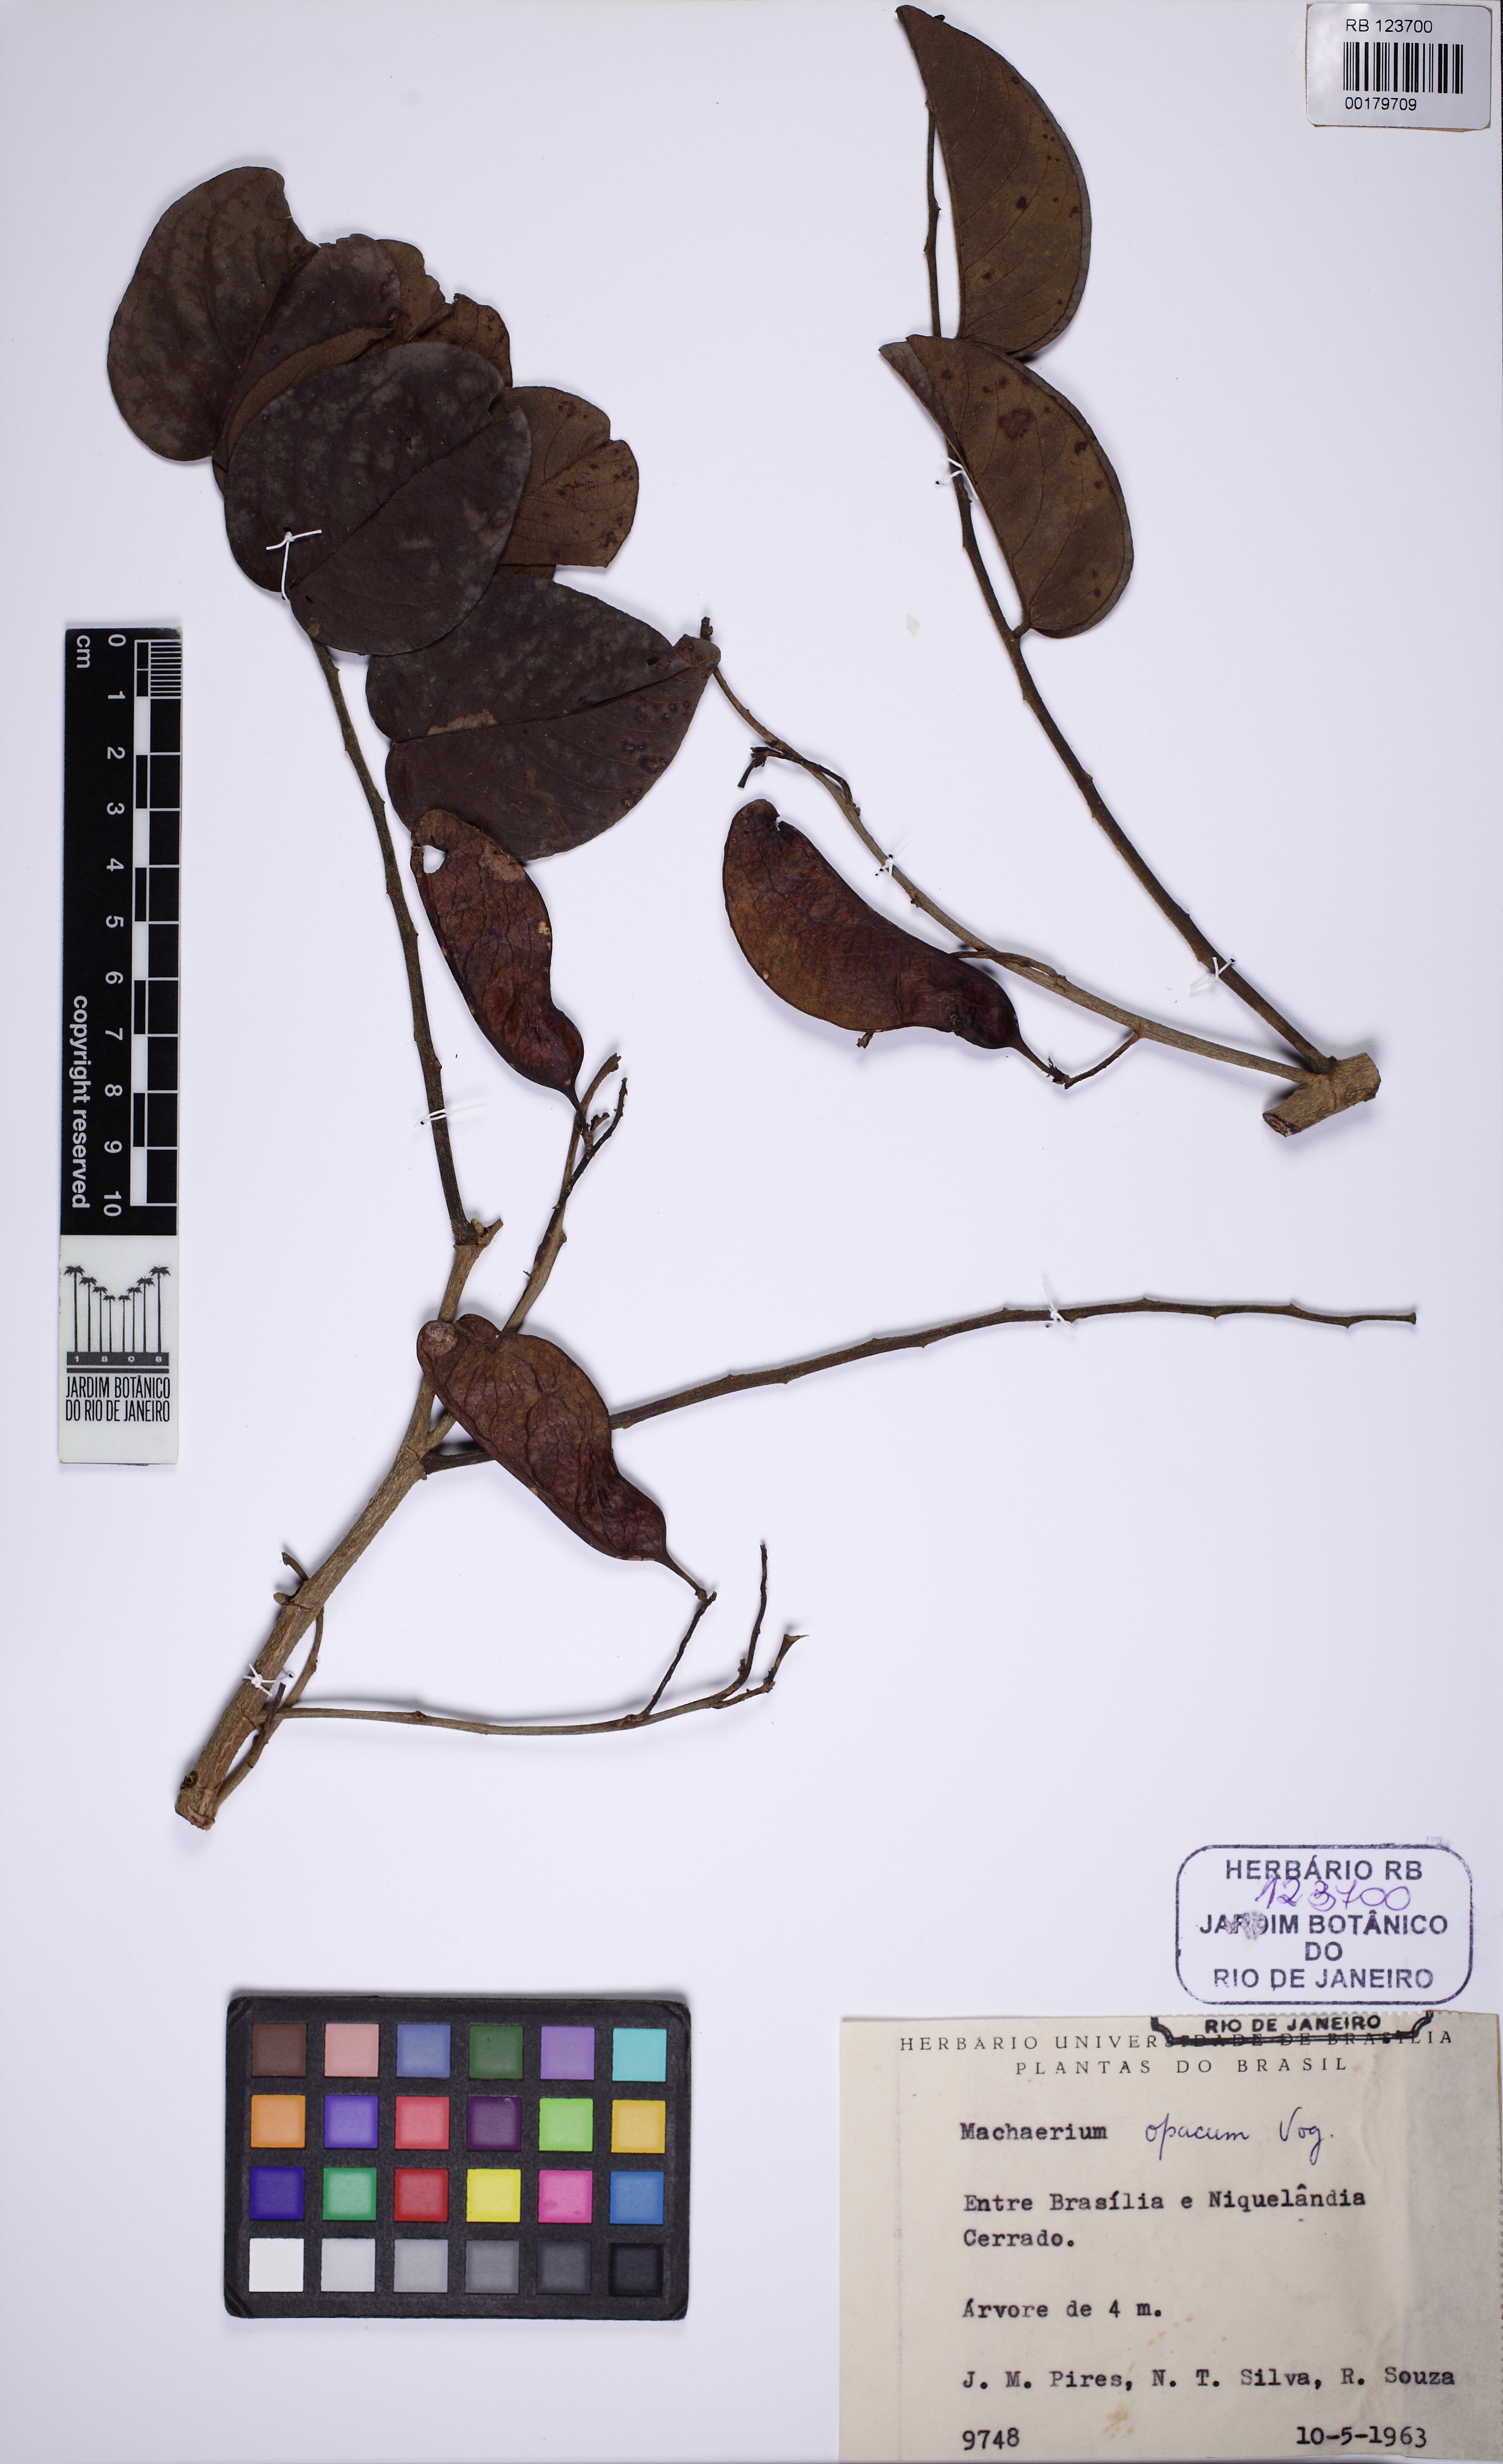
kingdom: Plantae
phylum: Tracheophyta
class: Magnoliopsida
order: Fabales
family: Fabaceae
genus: Machaerium
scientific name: Machaerium opacum
